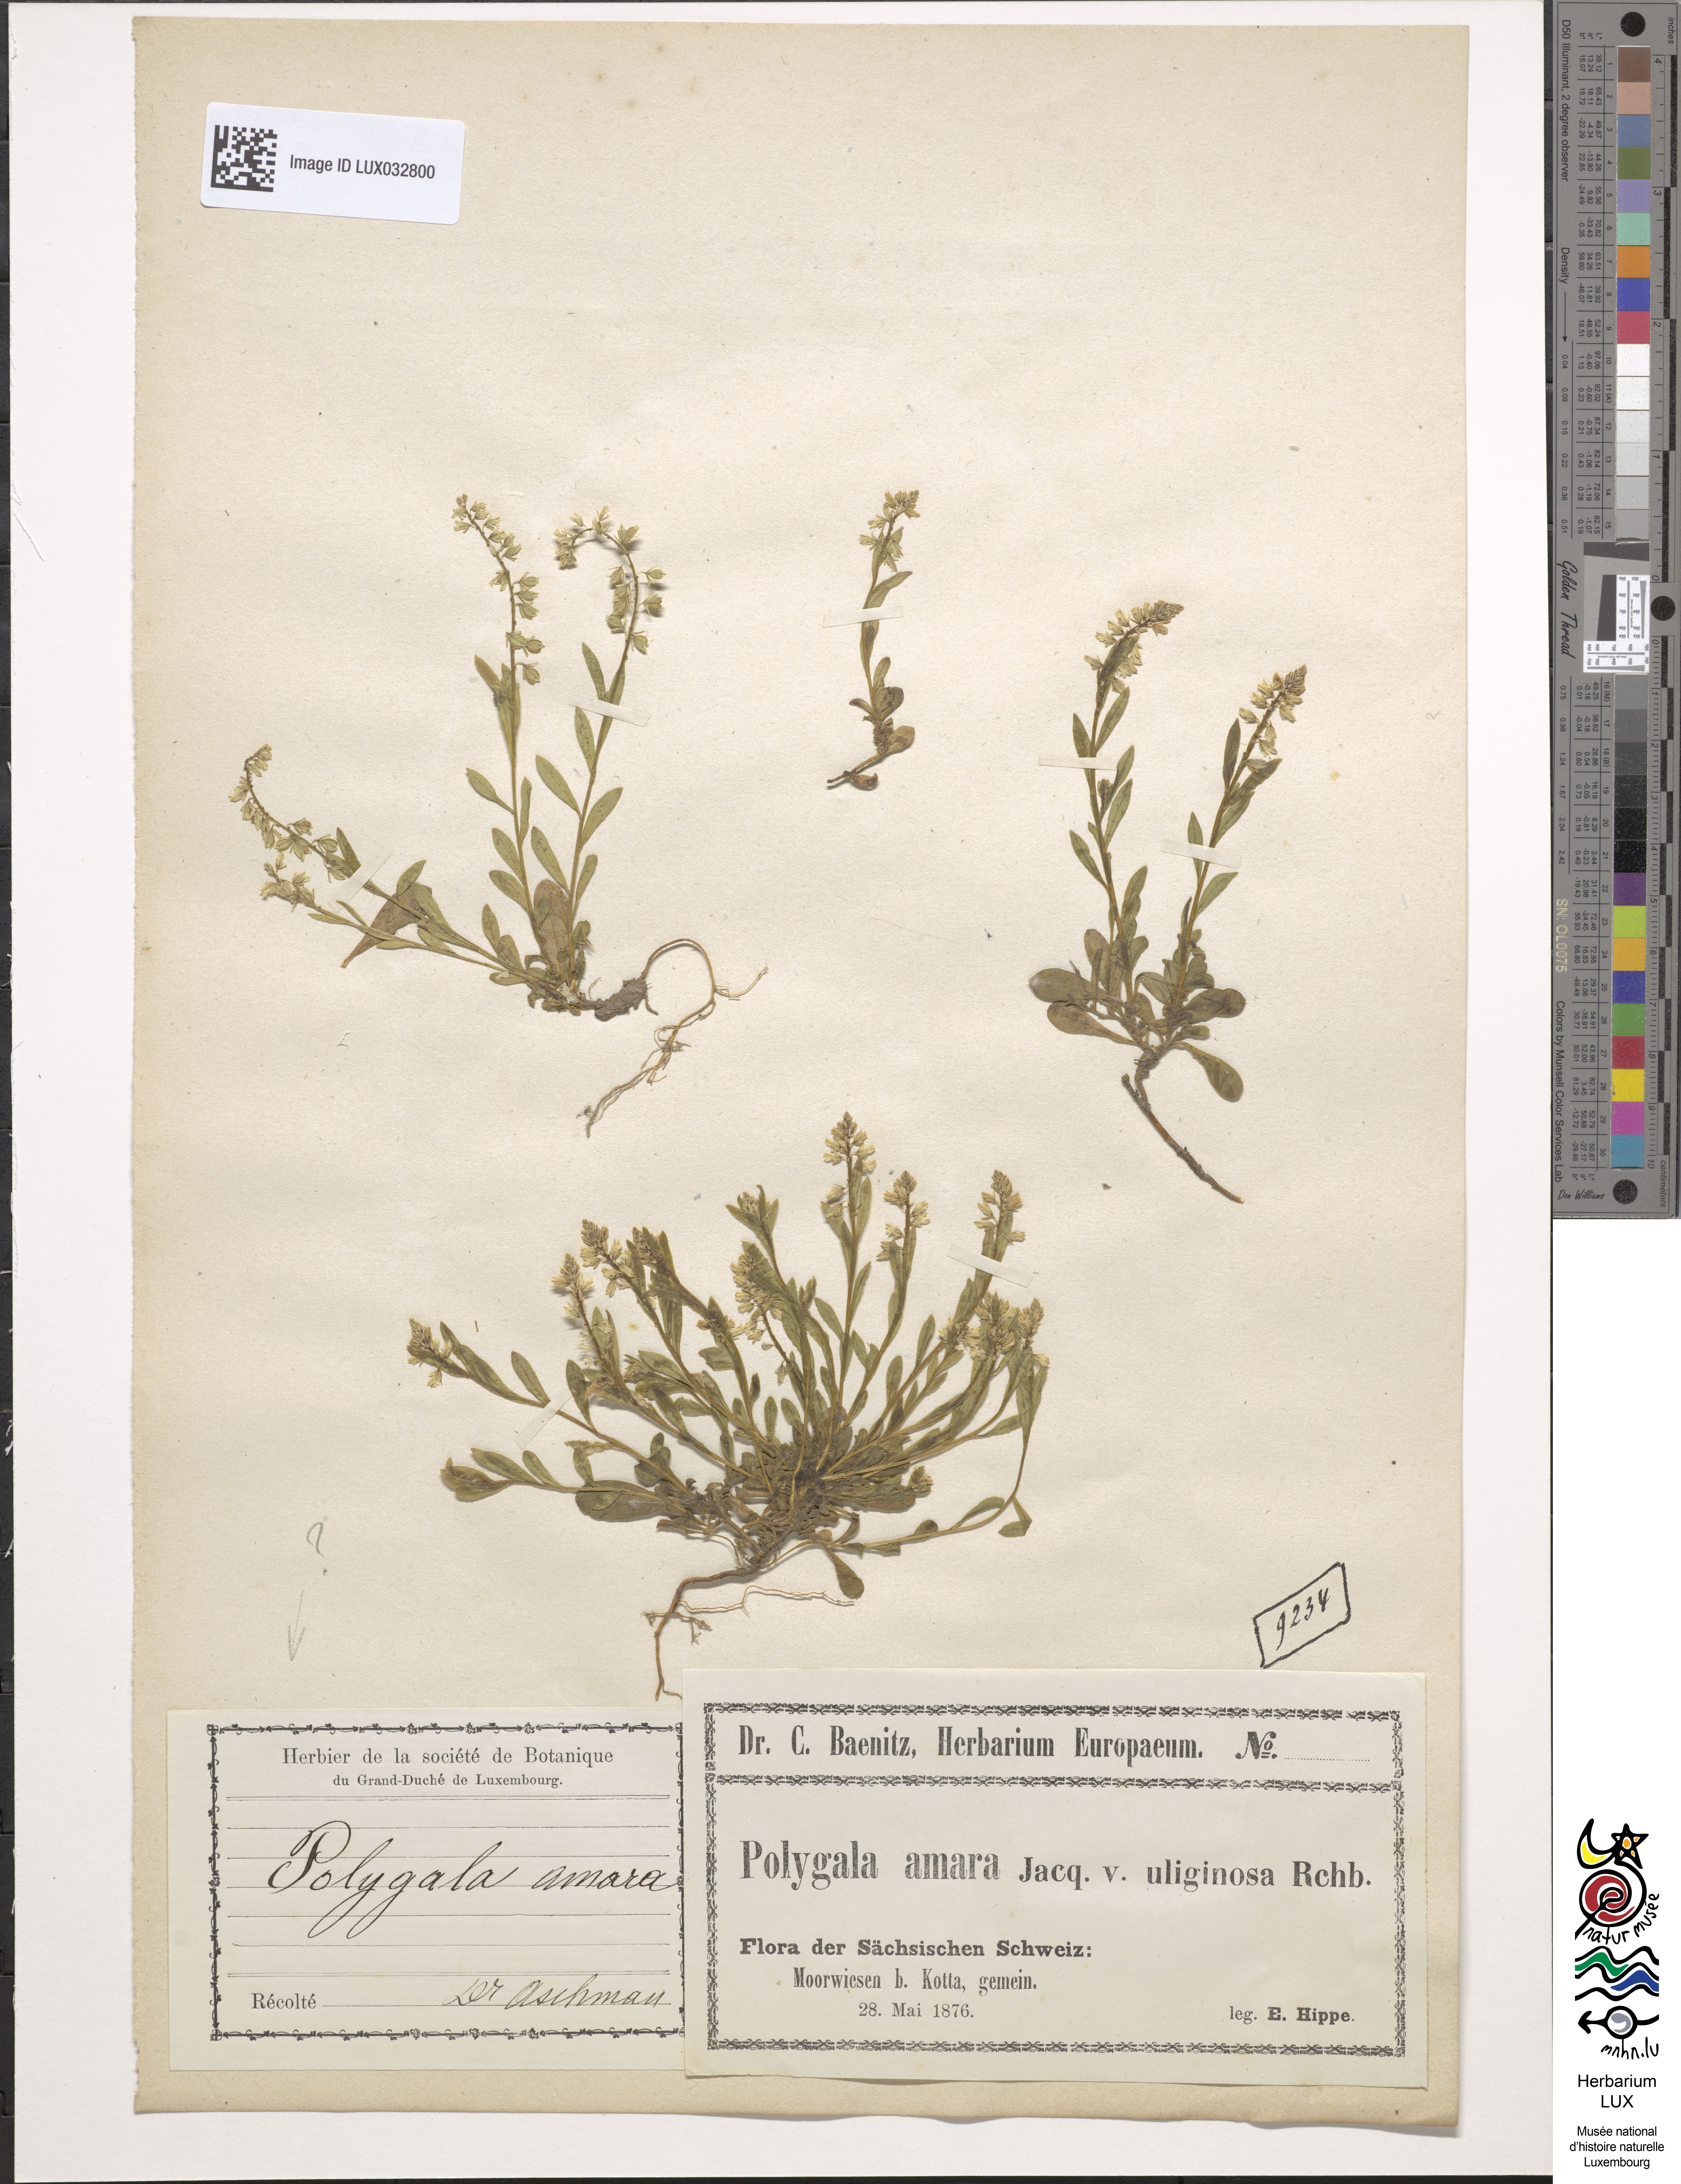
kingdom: Plantae
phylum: Tracheophyta
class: Magnoliopsida
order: Fabales
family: Polygalaceae
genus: Polygala
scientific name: Polygala amarella
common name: Dwarf milkwort
